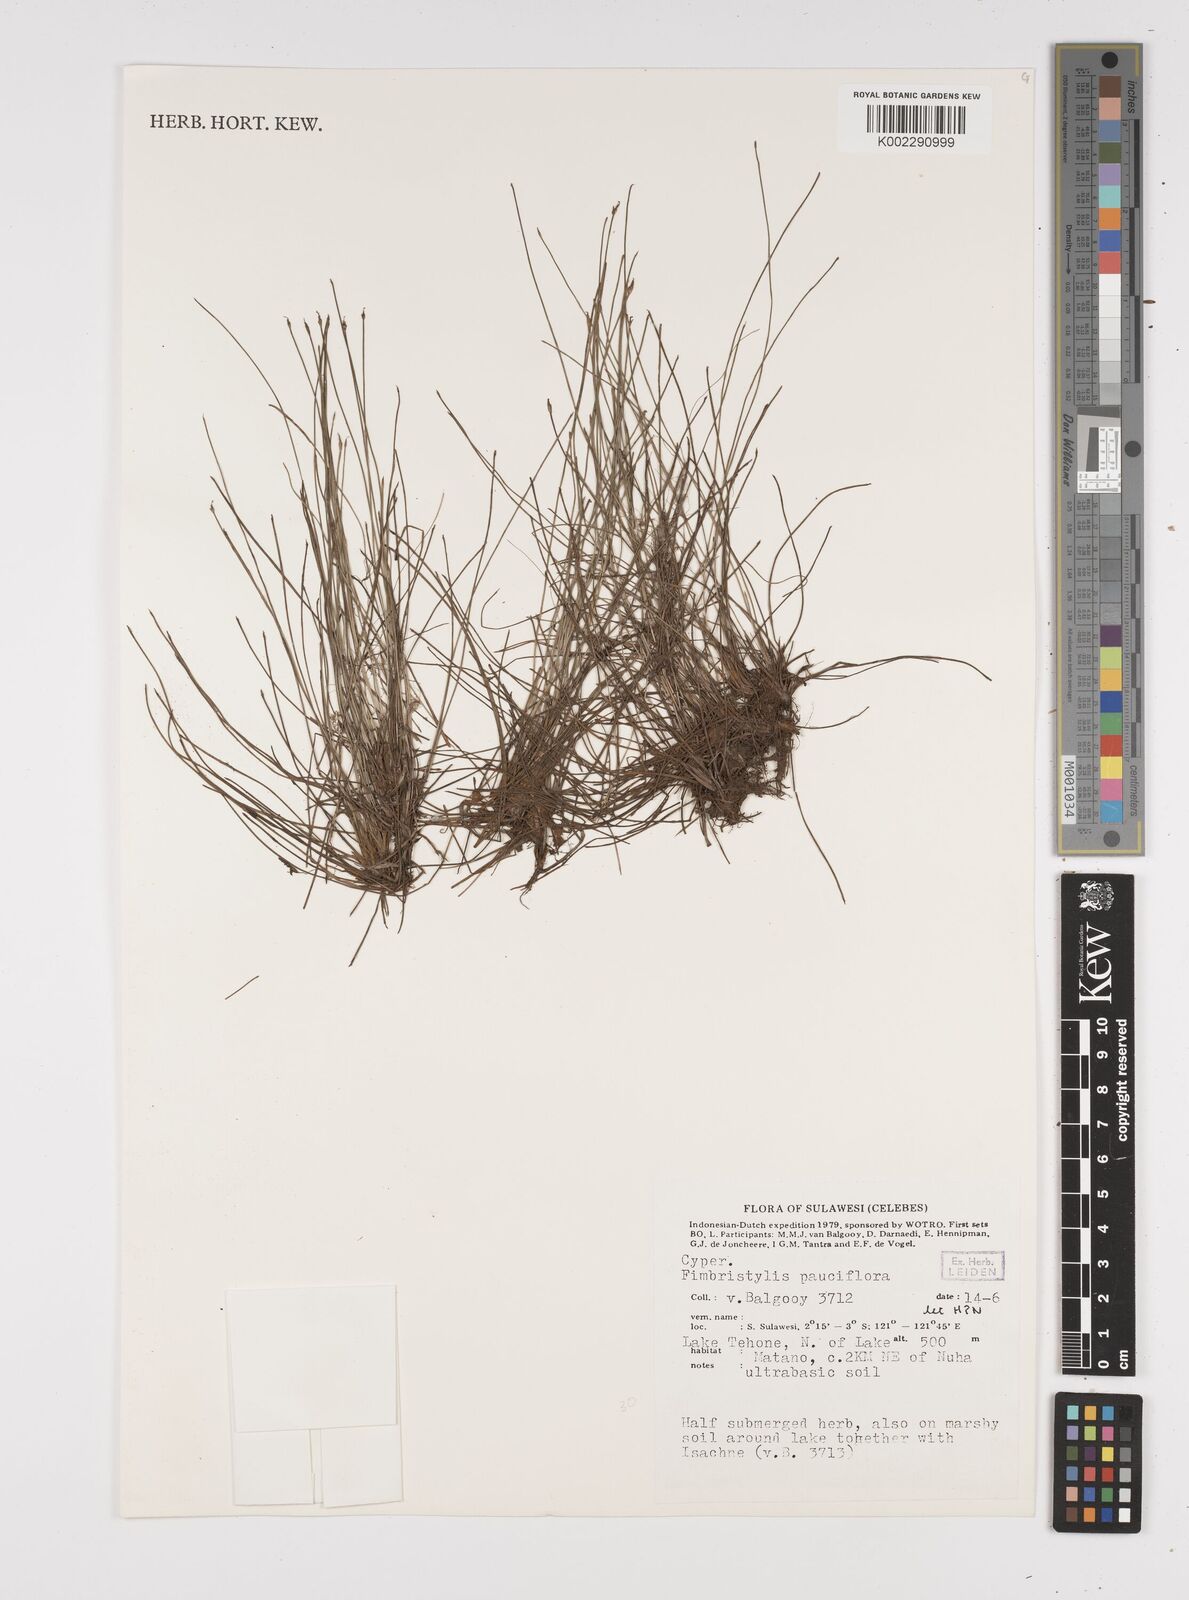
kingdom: Plantae
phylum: Tracheophyta
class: Liliopsida
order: Poales
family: Cyperaceae
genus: Fimbristylis
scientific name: Fimbristylis pauciflora
